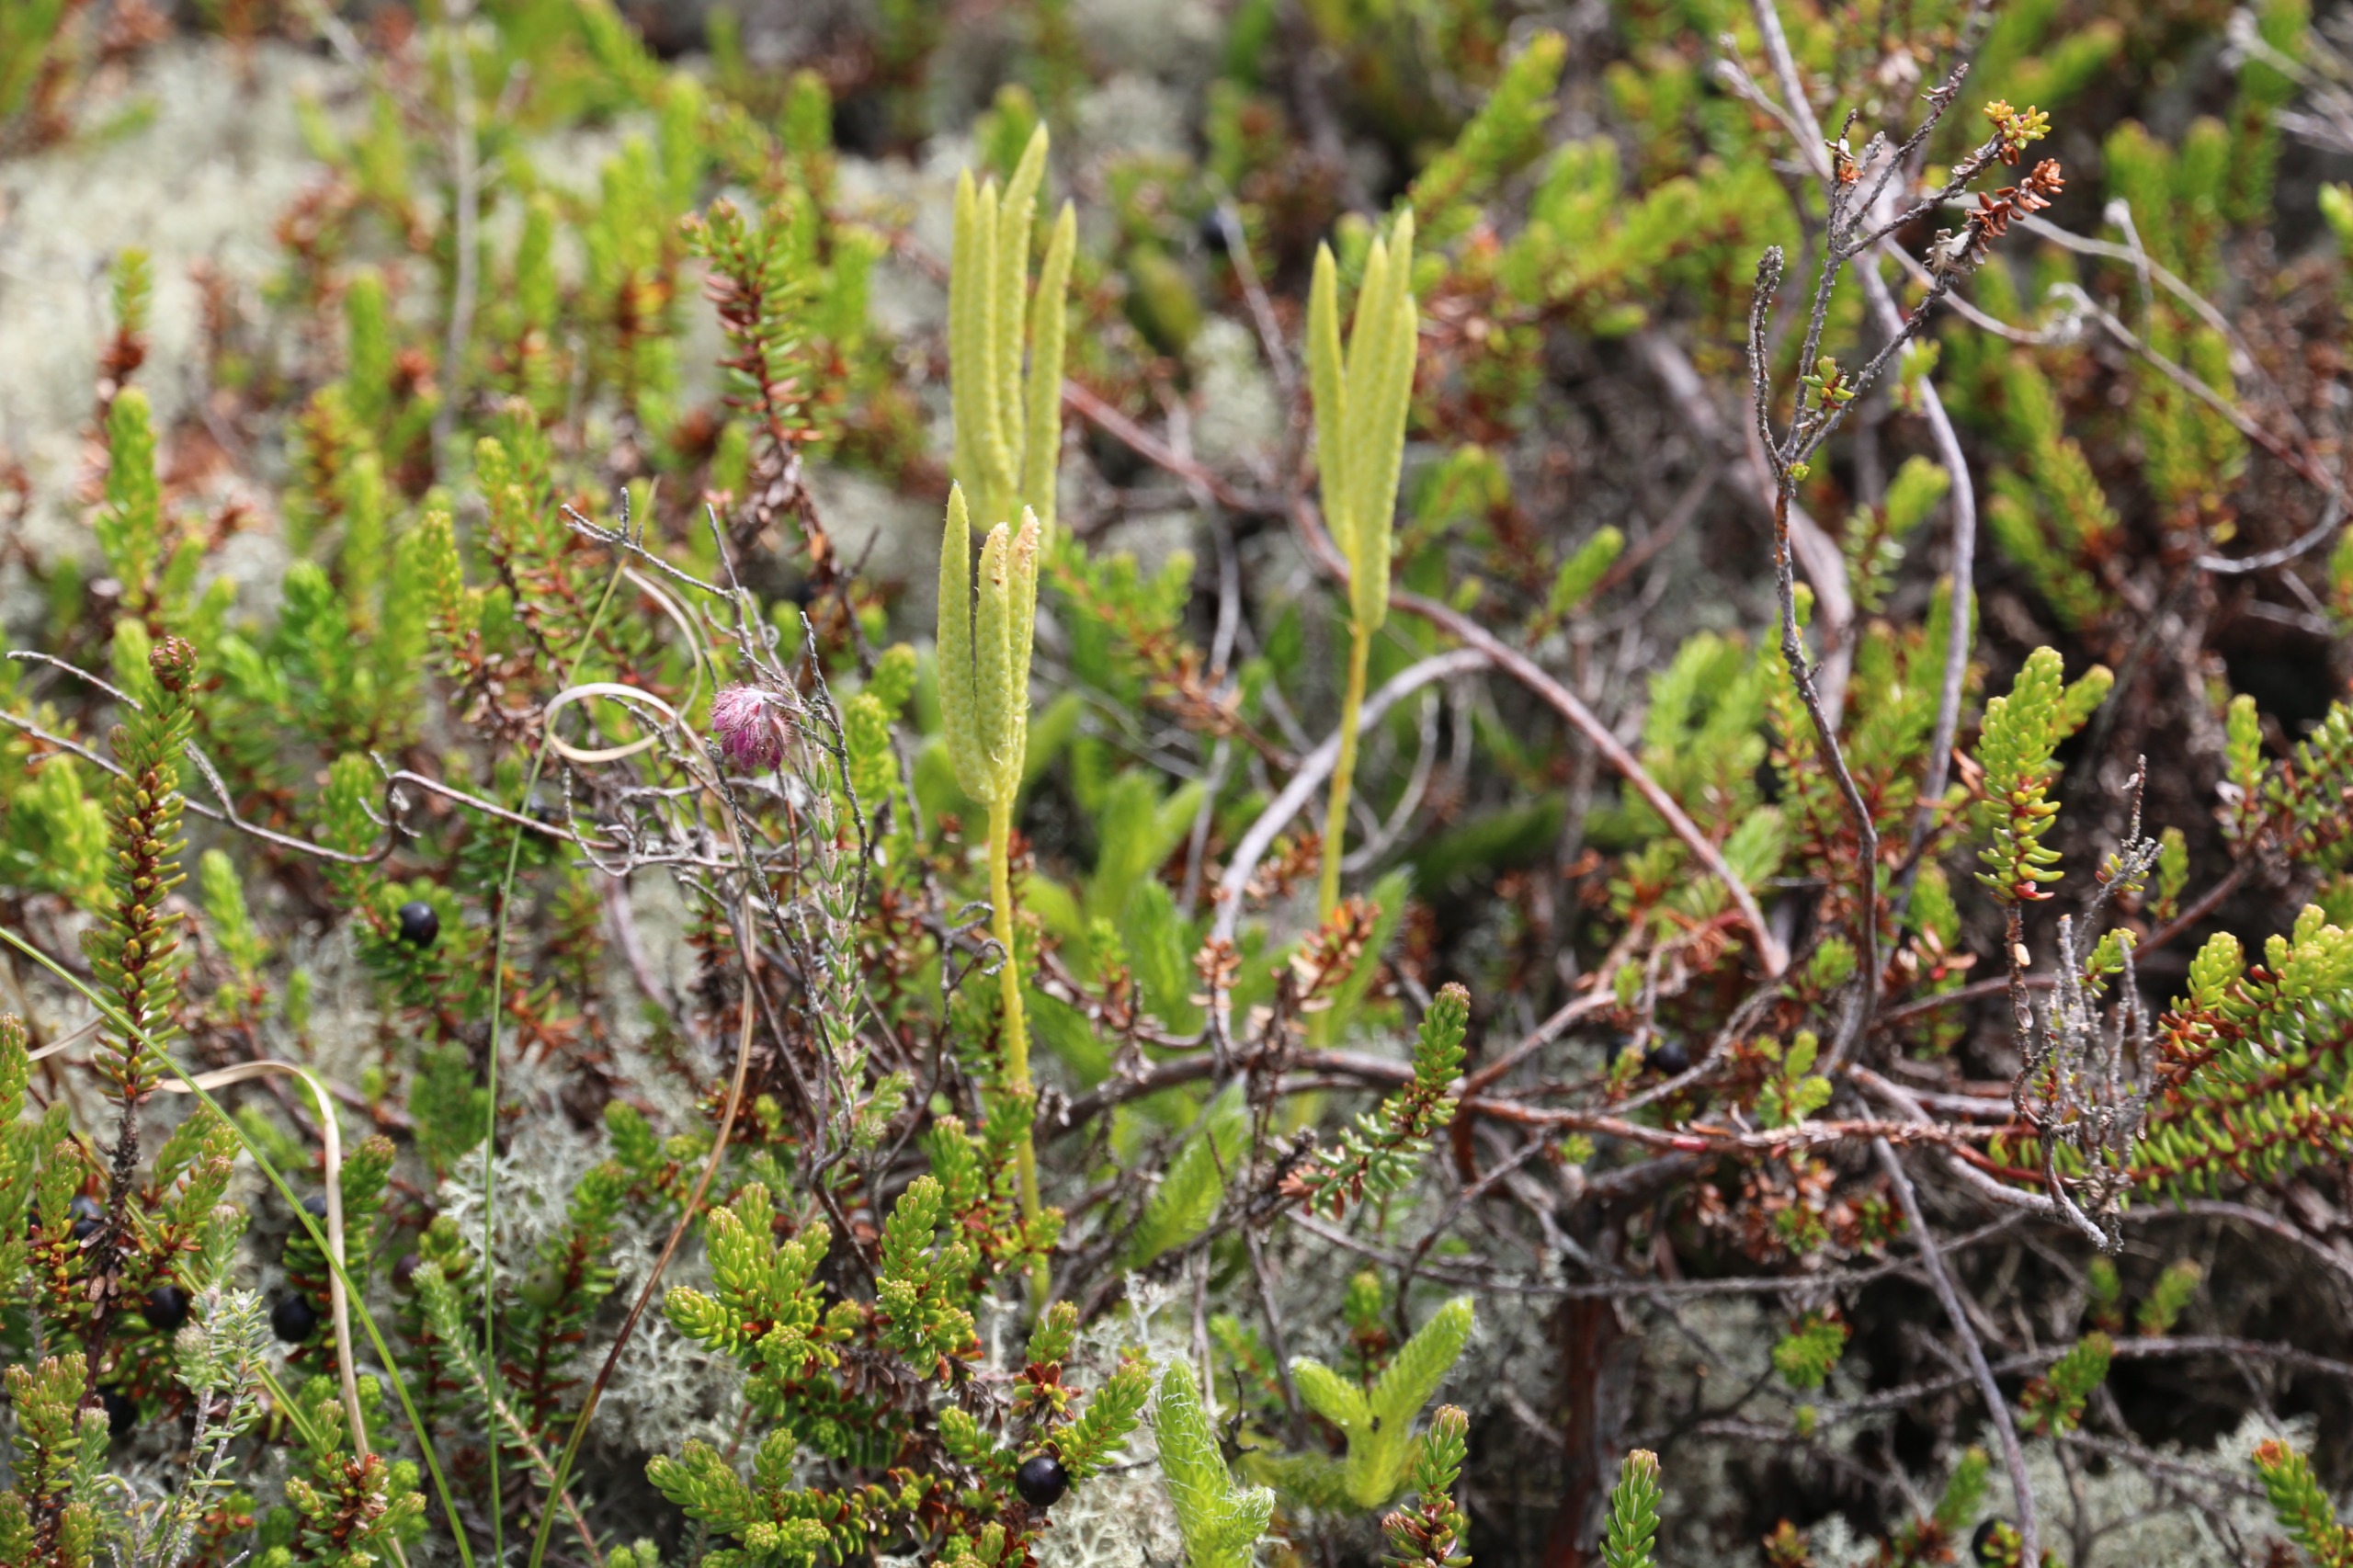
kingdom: Plantae
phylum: Tracheophyta
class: Lycopodiopsida
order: Lycopodiales
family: Lycopodiaceae
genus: Lycopodium
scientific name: Lycopodium clavatum
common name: Almindelig ulvefod
